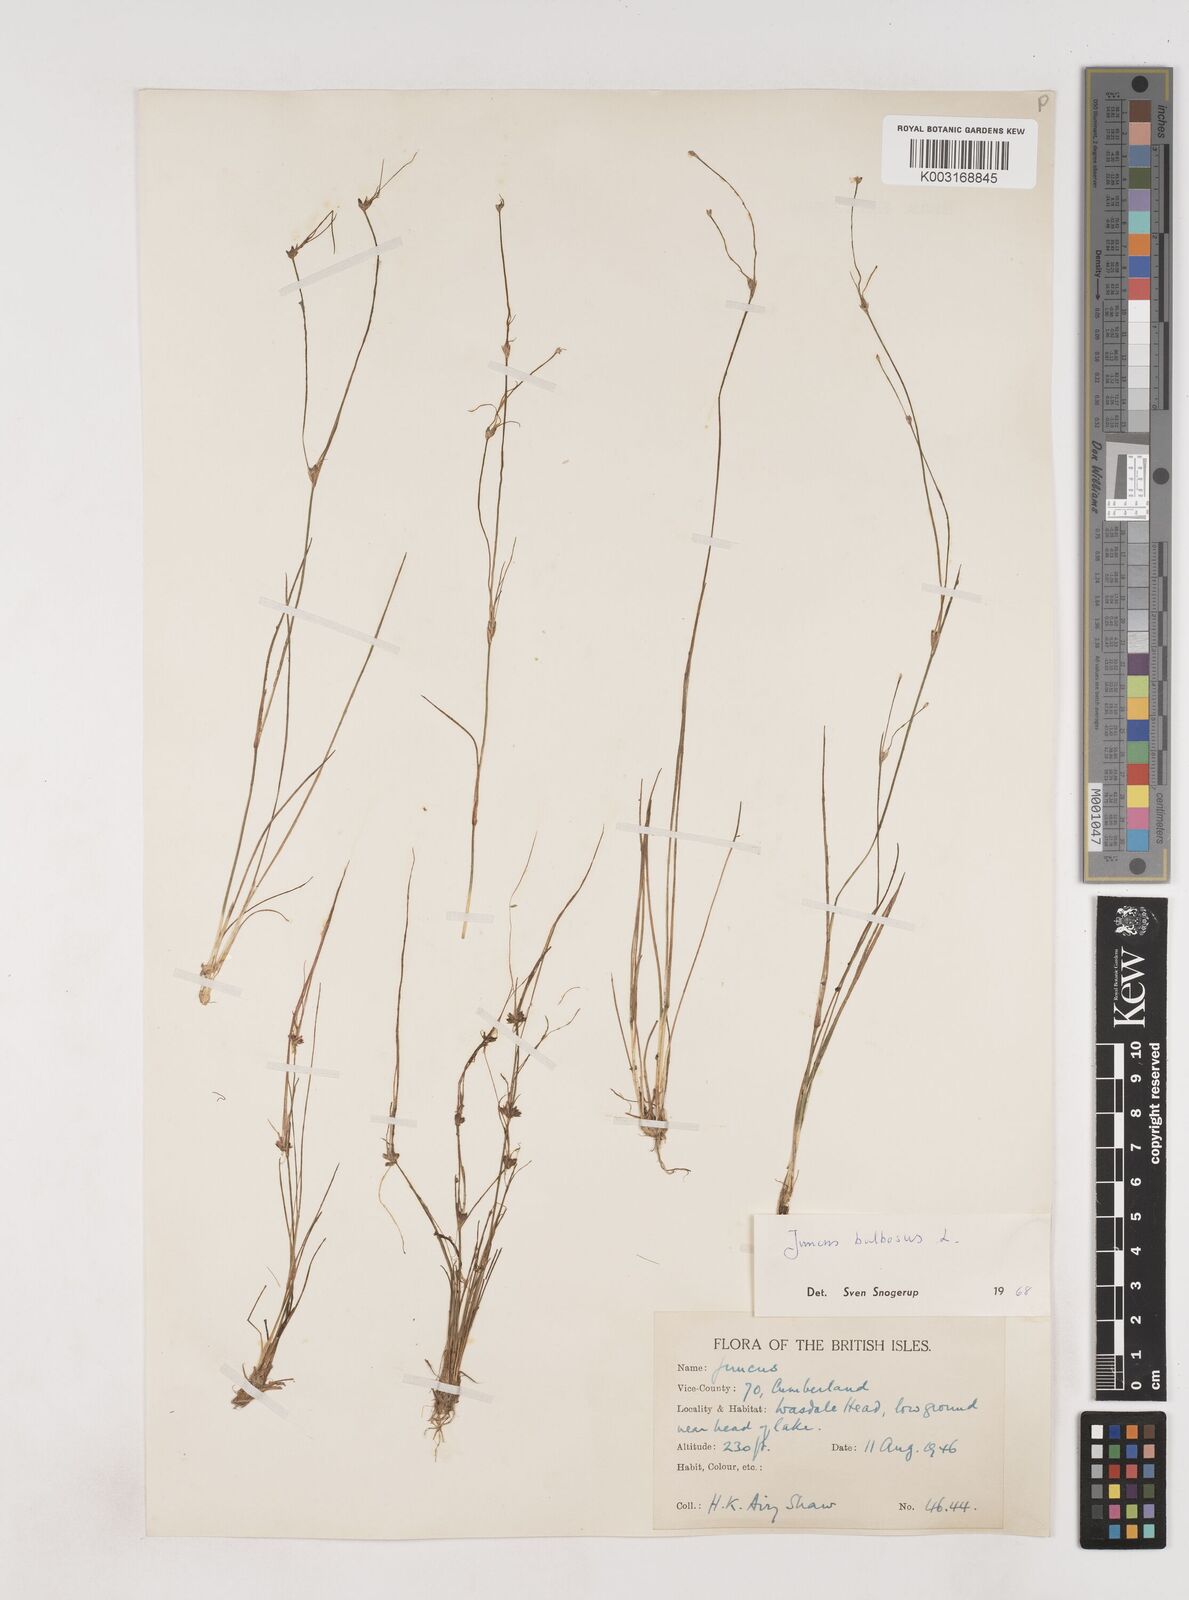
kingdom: Plantae
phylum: Tracheophyta
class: Liliopsida
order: Poales
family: Juncaceae
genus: Juncus
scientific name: Juncus bulbosus
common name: Bulbous rush
